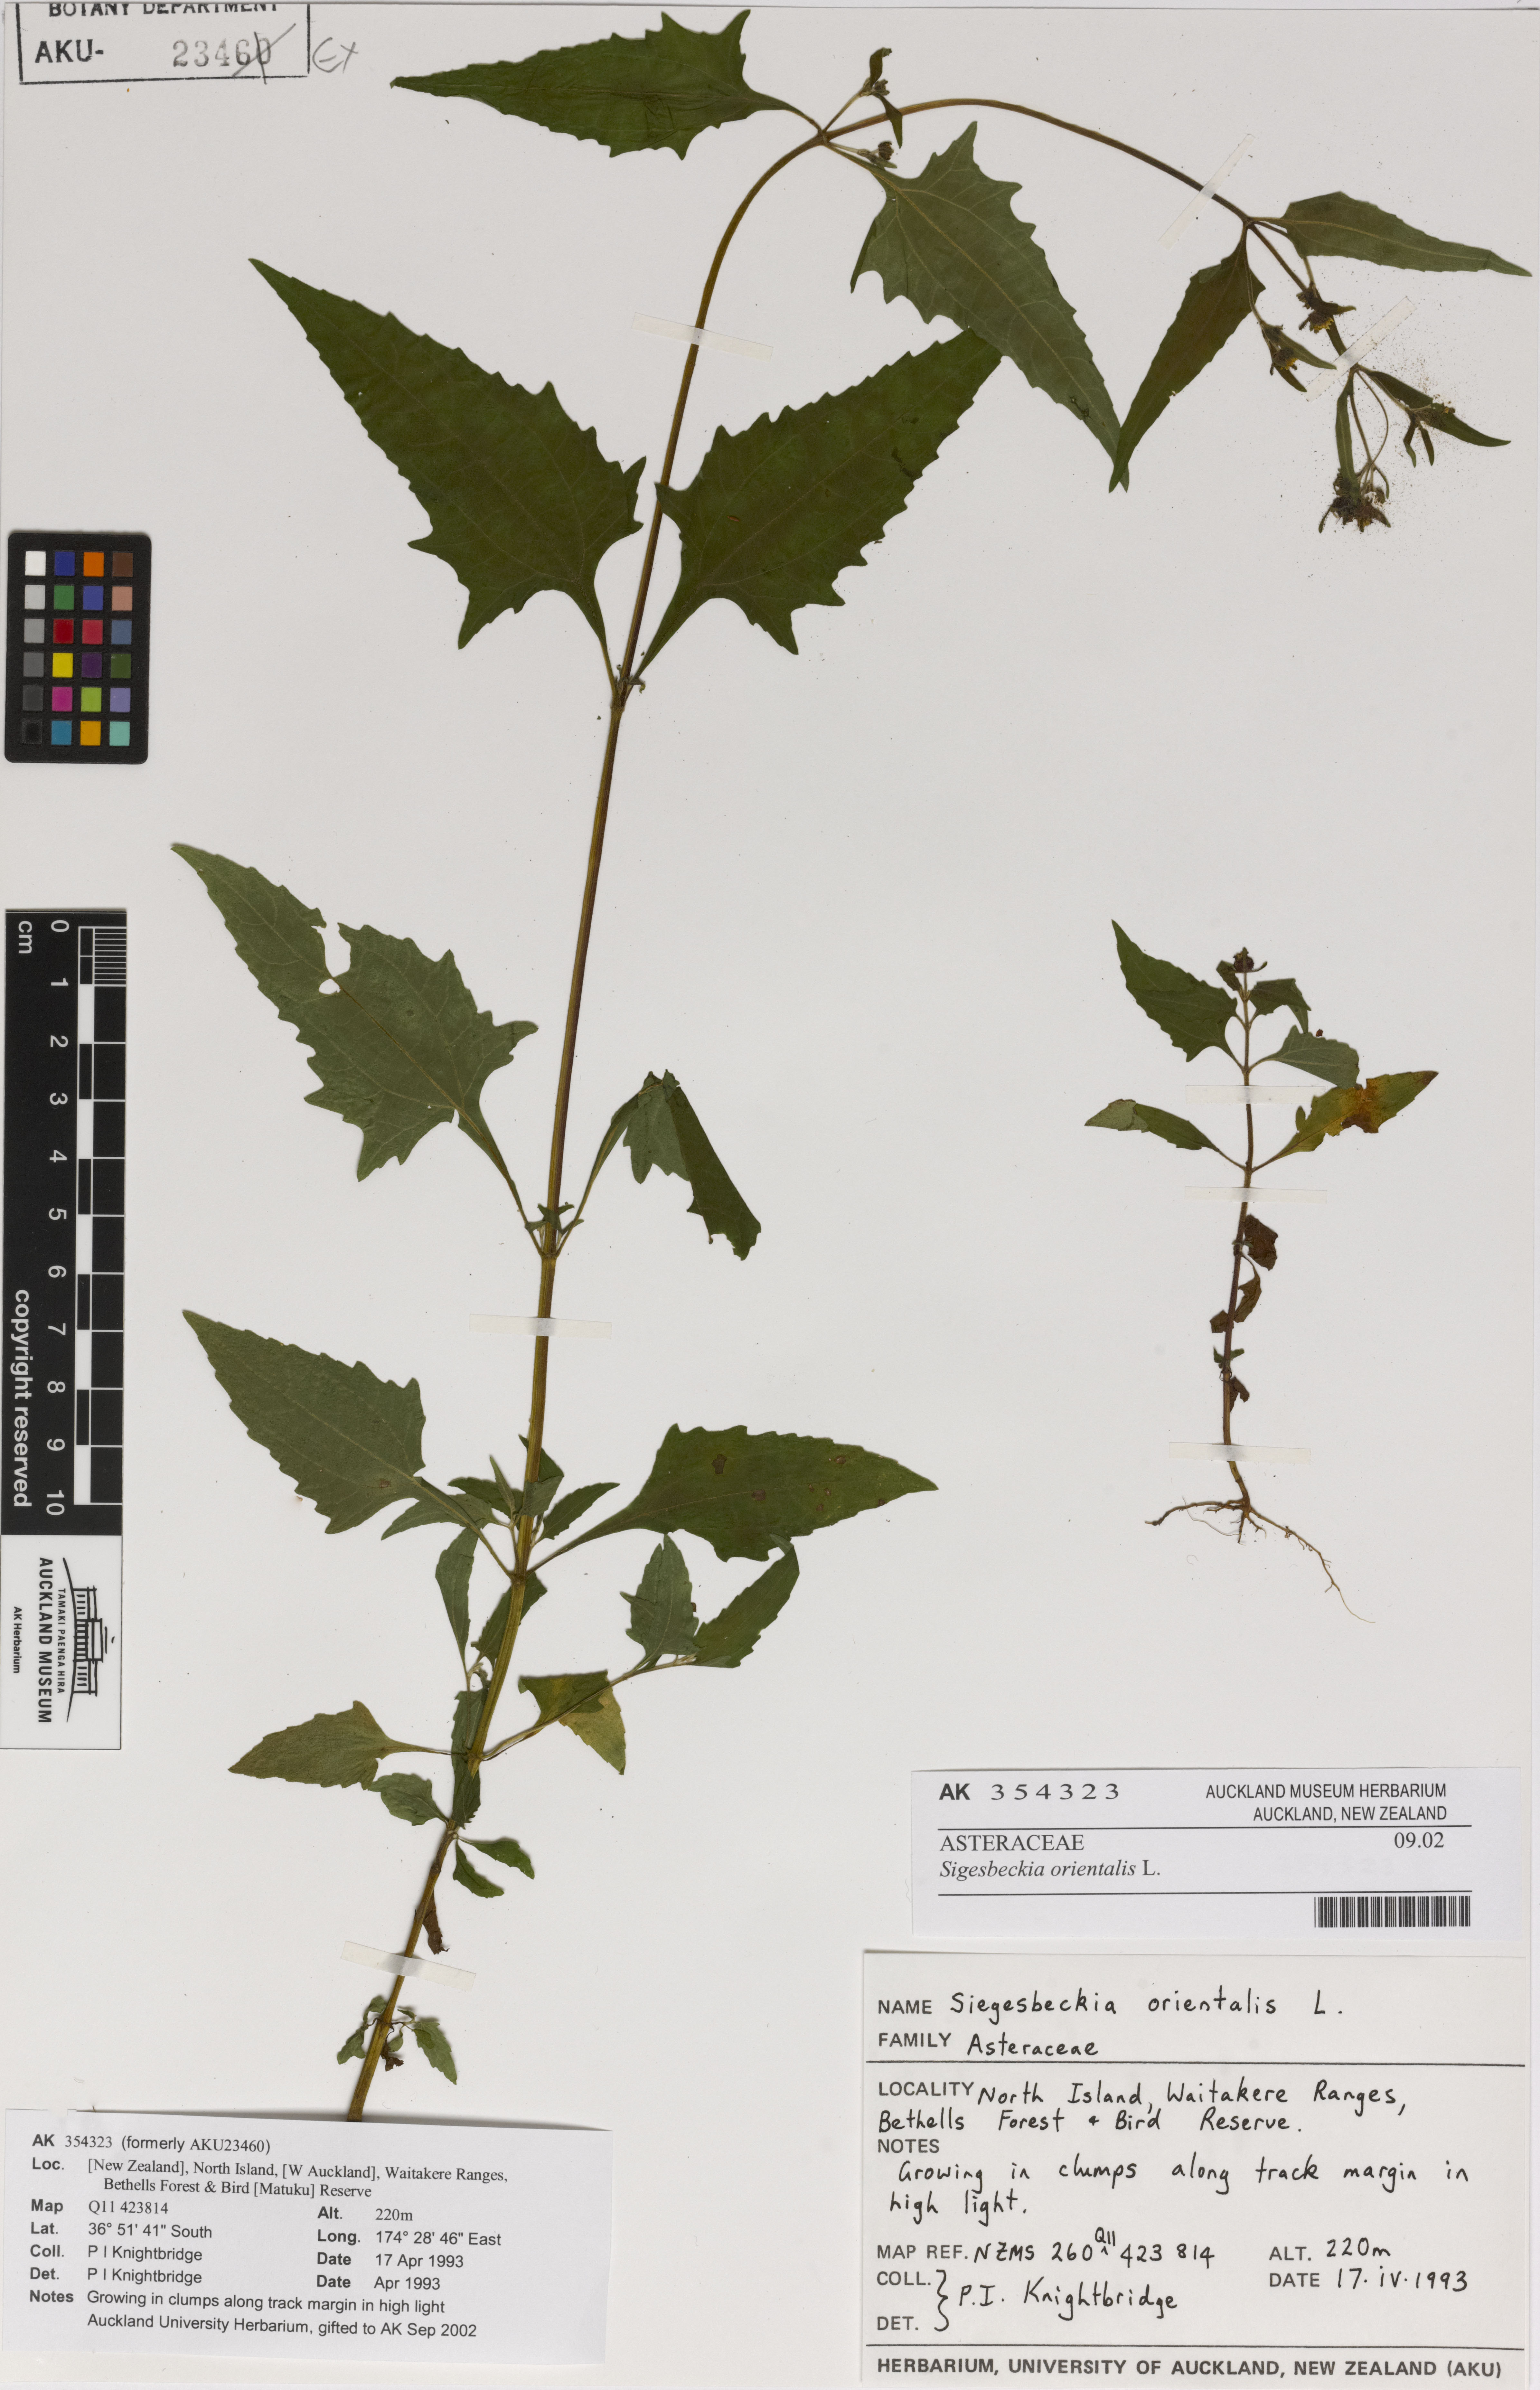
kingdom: Plantae
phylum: Tracheophyta
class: Magnoliopsida
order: Asterales
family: Asteraceae
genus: Sigesbeckia
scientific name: Sigesbeckia orientalis
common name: Eastern st paul's-wort
